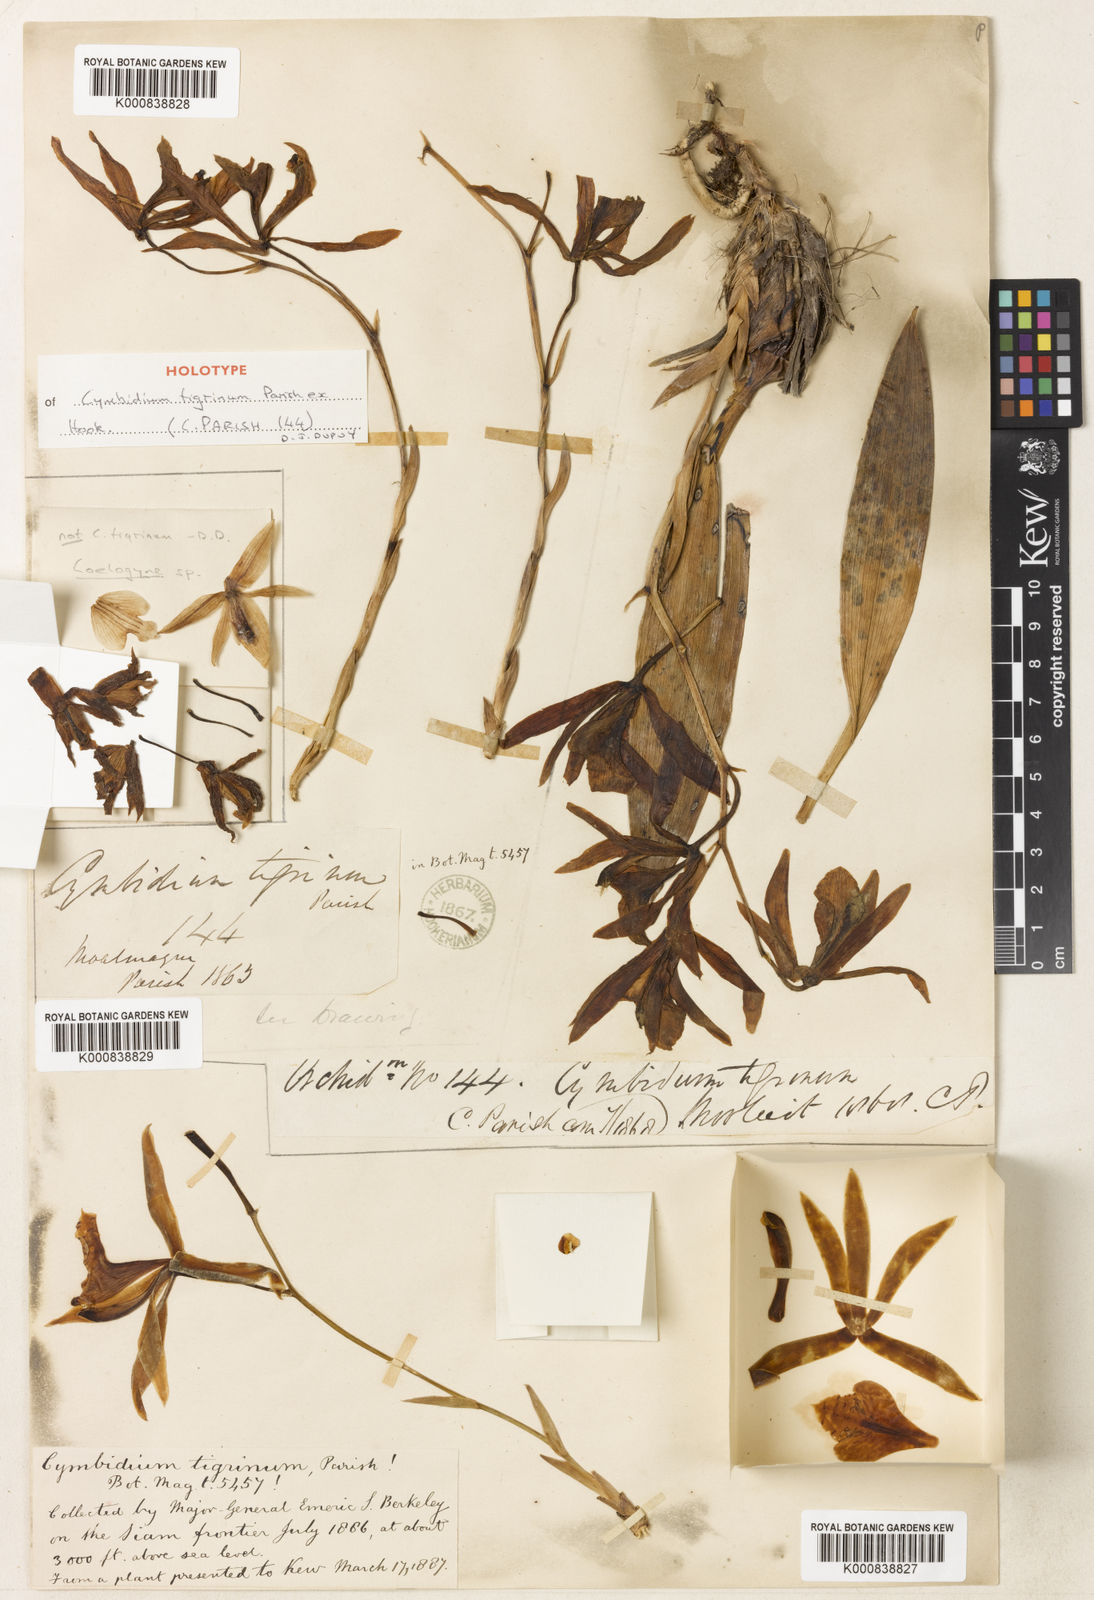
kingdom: Plantae
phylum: Tracheophyta
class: Liliopsida
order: Asparagales
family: Orchidaceae
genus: Cymbidium
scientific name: Cymbidium tigrinum
